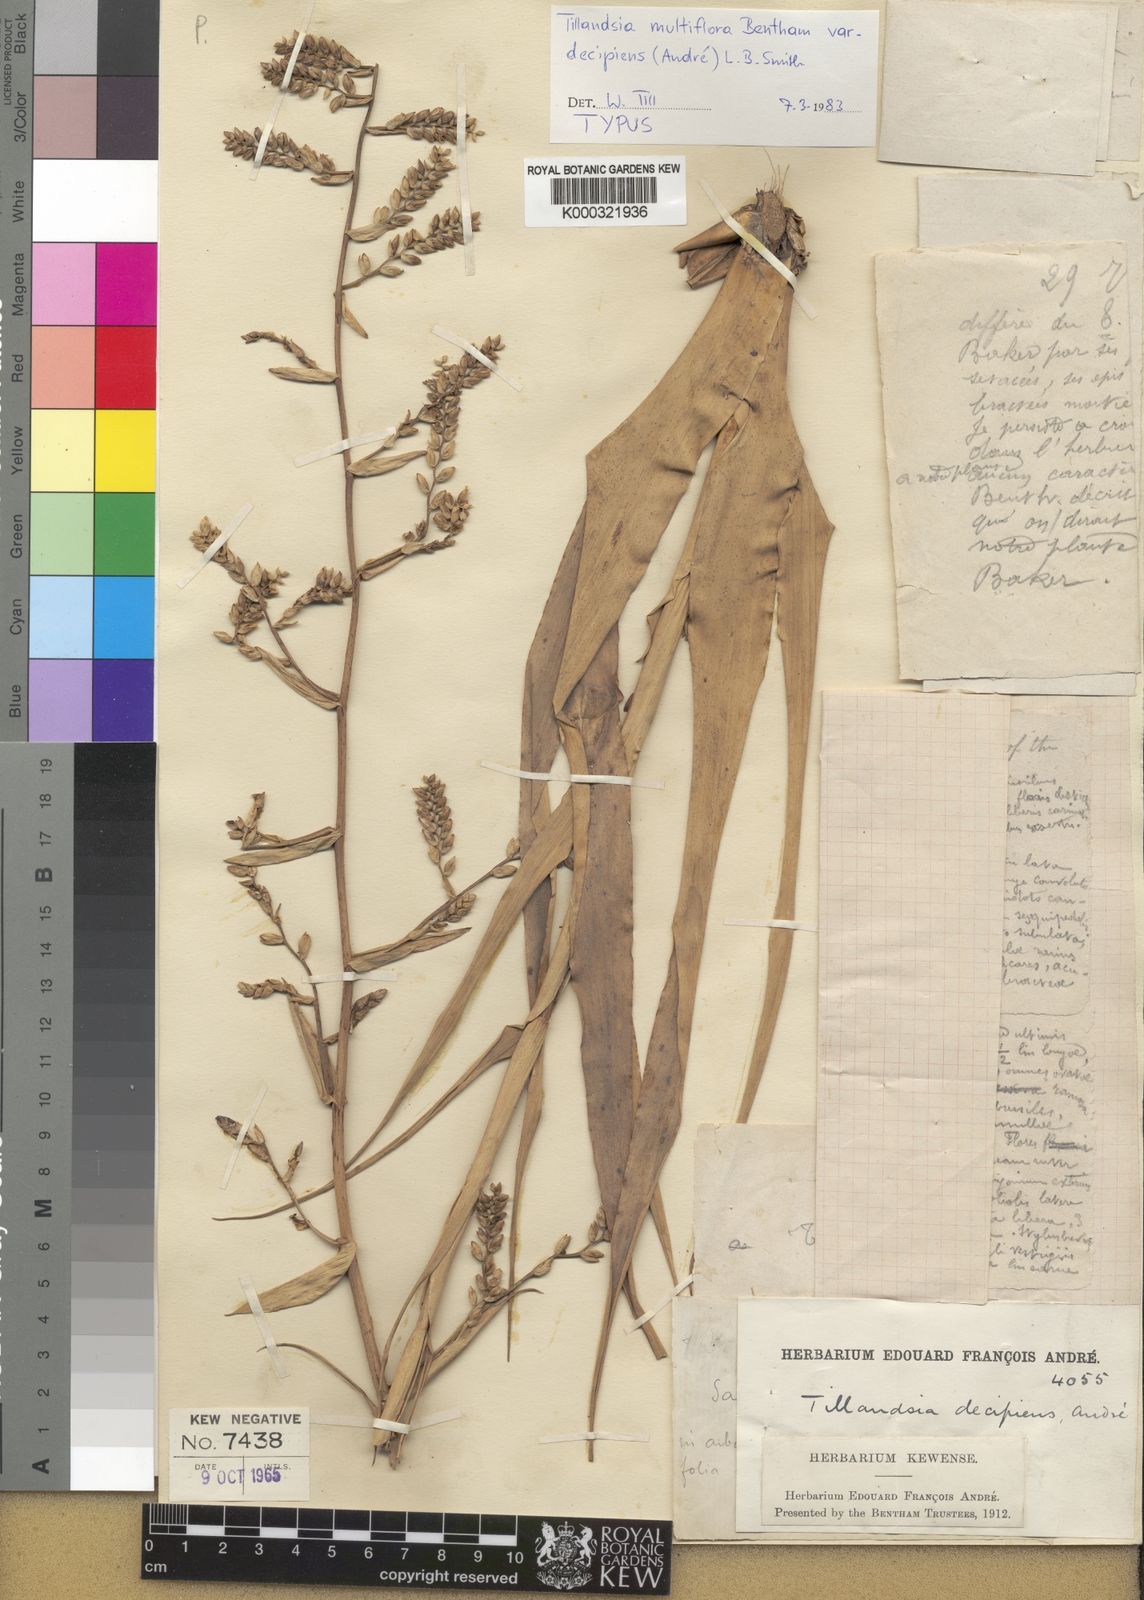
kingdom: Plantae
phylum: Tracheophyta
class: Liliopsida
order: Poales
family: Bromeliaceae
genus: Racinaea
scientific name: Racinaea multiflora
